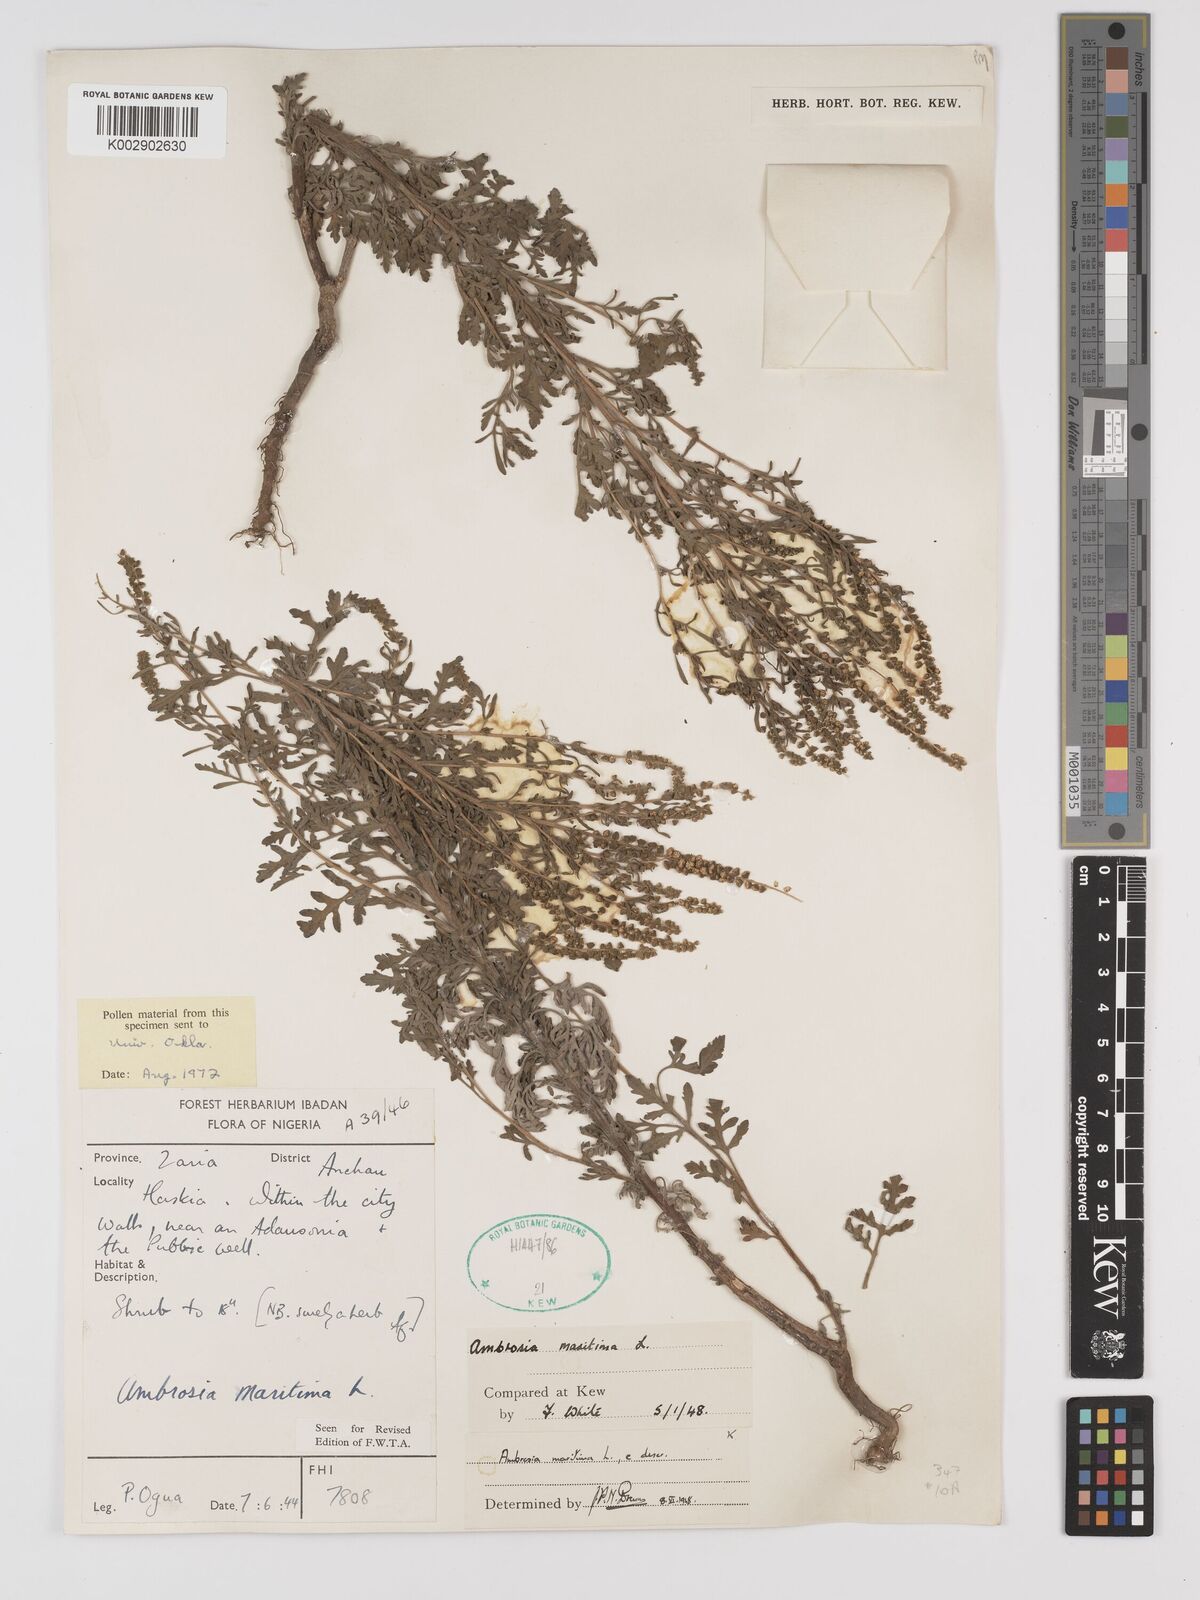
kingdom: Plantae
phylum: Tracheophyta
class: Magnoliopsida
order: Asterales
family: Asteraceae
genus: Ambrosia
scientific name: Ambrosia maritima
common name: Sea ambrosia
